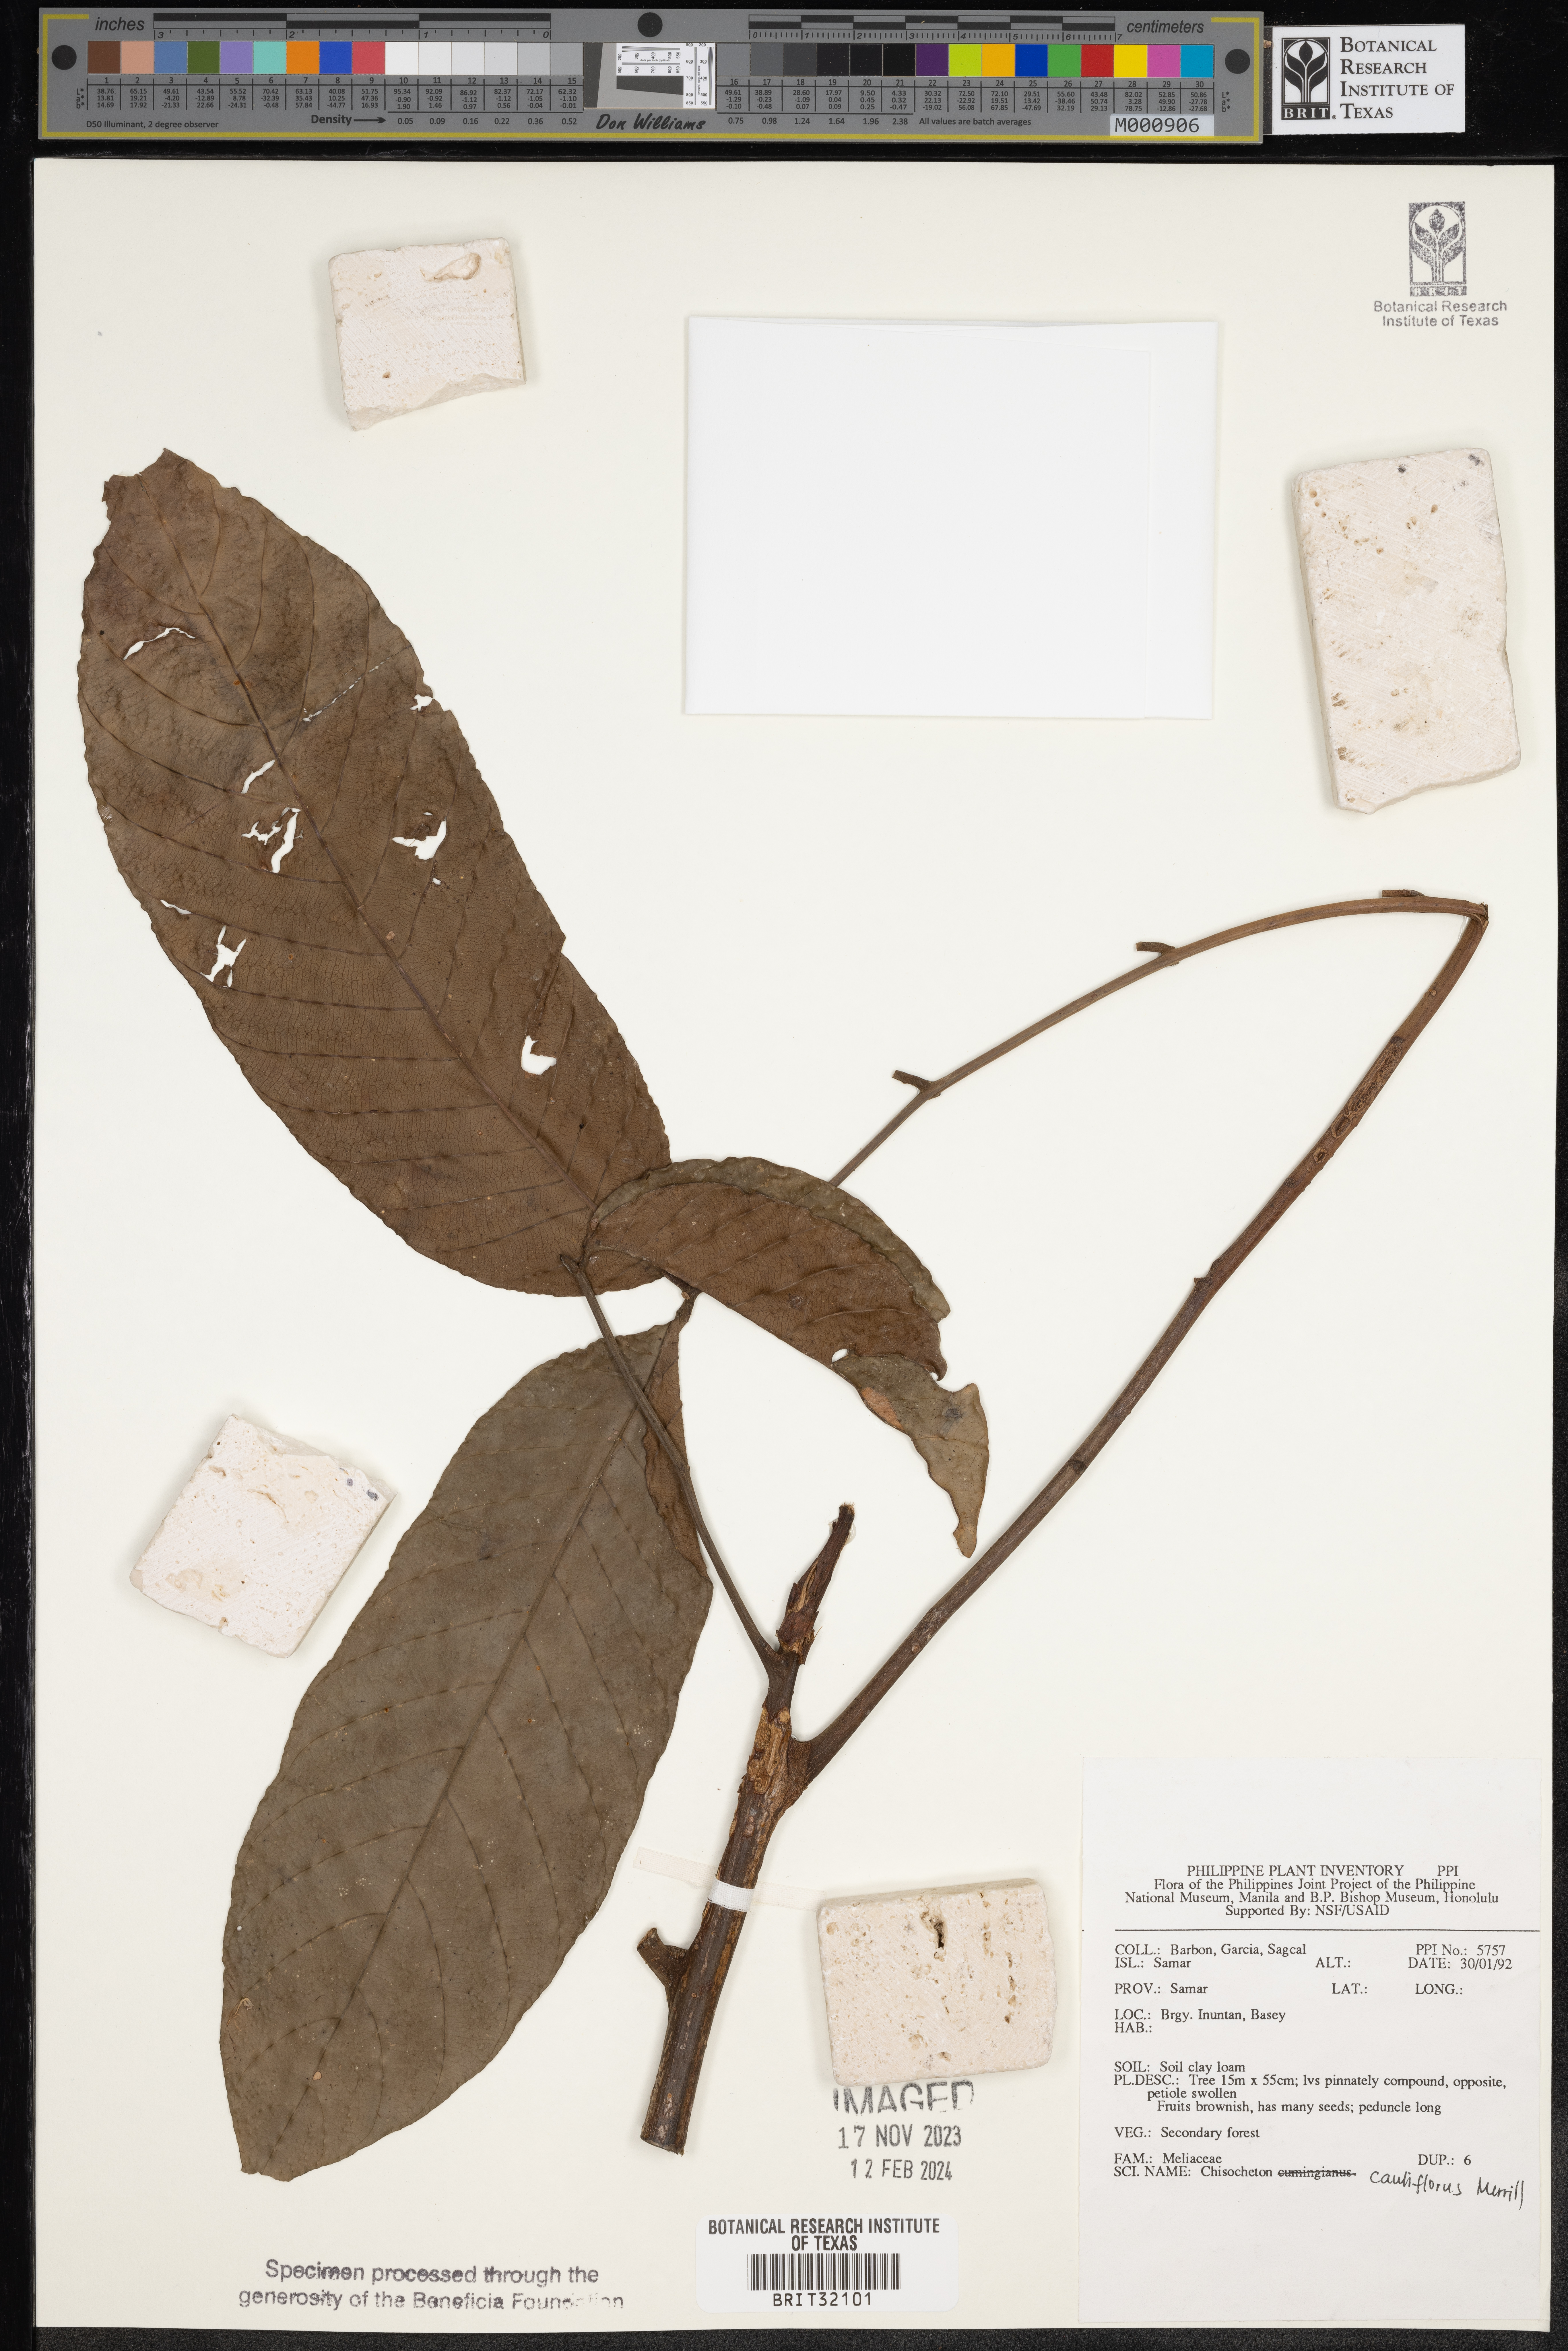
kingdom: Plantae
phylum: Tracheophyta
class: Magnoliopsida
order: Sapindales
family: Meliaceae
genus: Chisocheton
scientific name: Chisocheton cauliflorus
